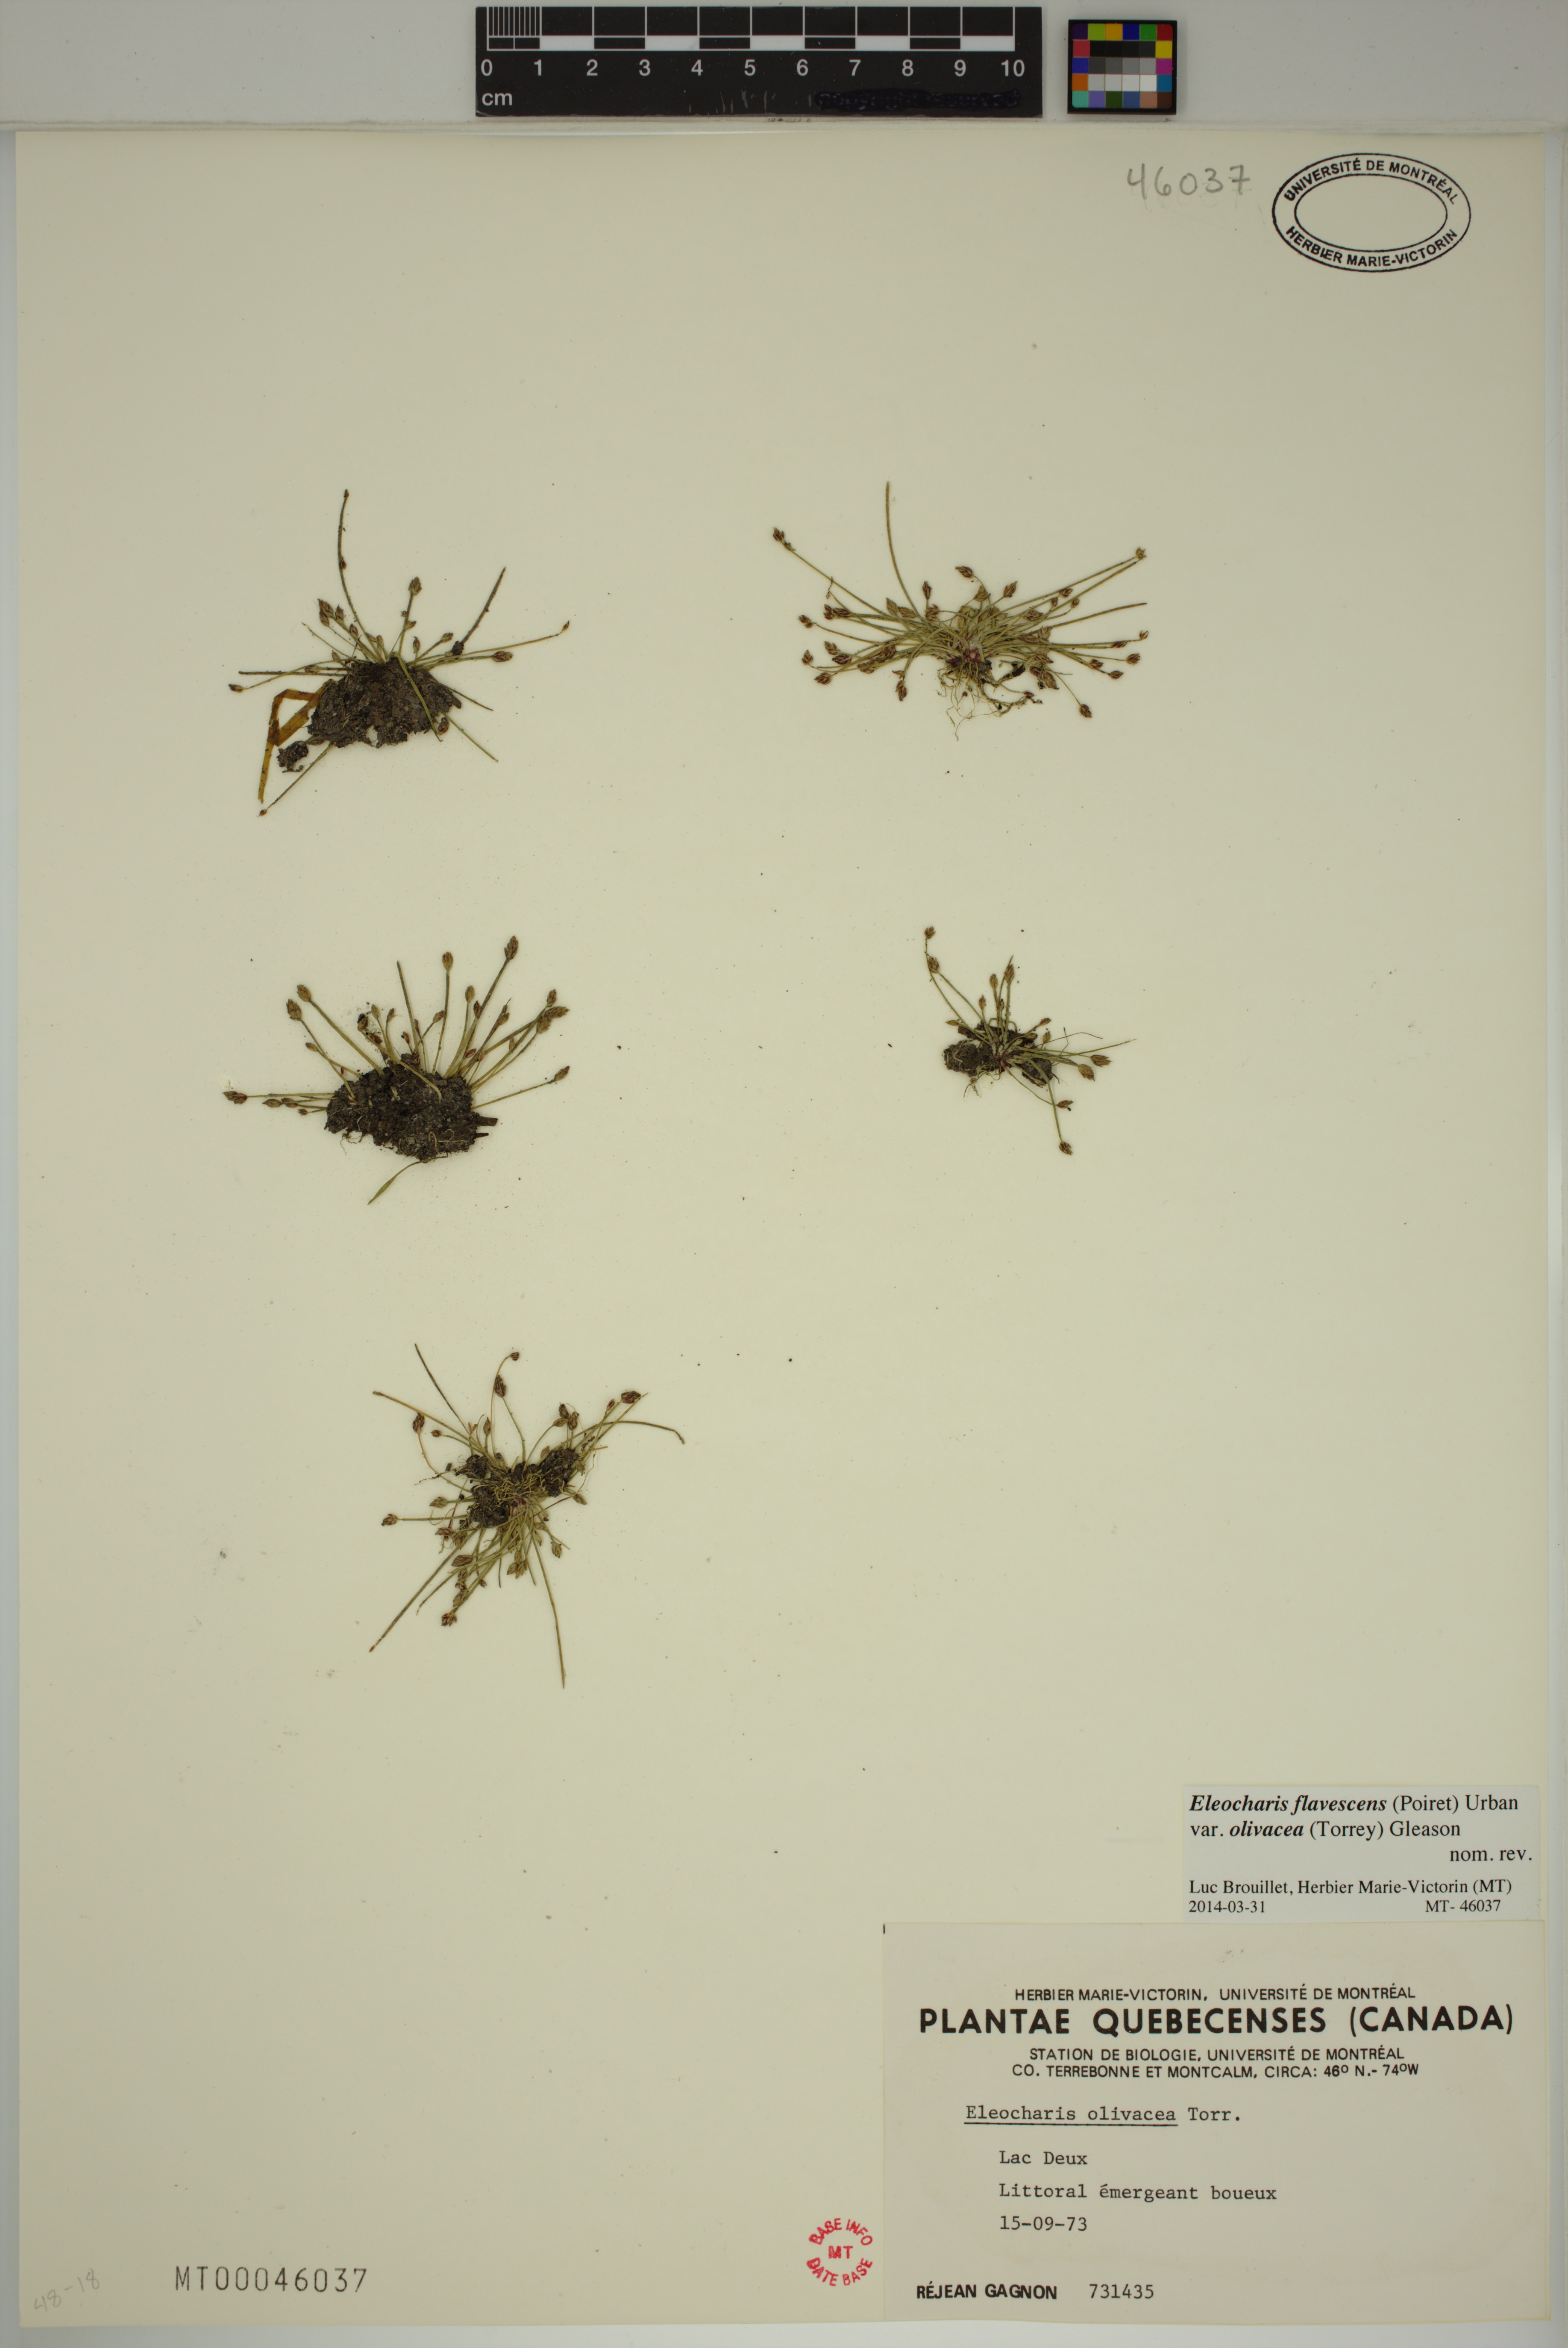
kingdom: Plantae
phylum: Tracheophyta
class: Liliopsida
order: Poales
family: Cyperaceae
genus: Eleocharis
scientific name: Eleocharis flavescens
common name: Yellow spikerush
